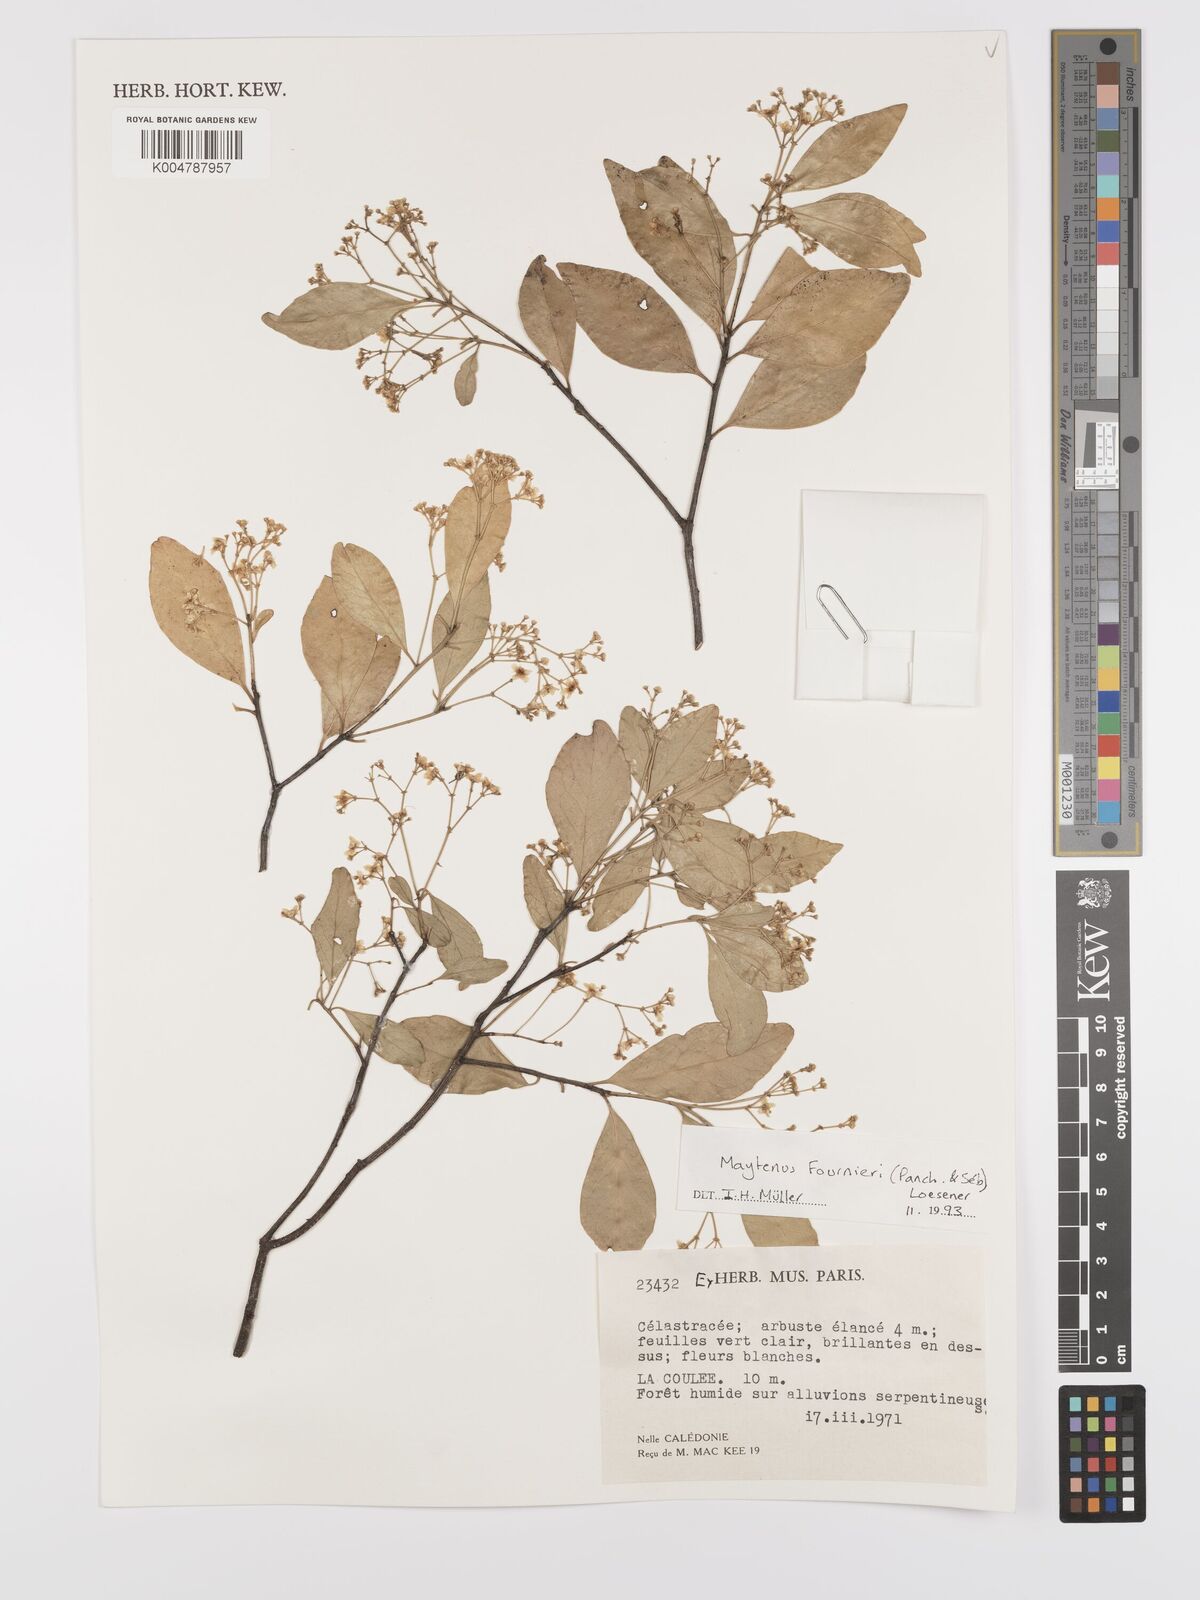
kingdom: Plantae
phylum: Tracheophyta
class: Magnoliopsida
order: Celastrales
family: Celastraceae
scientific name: Celastraceae
